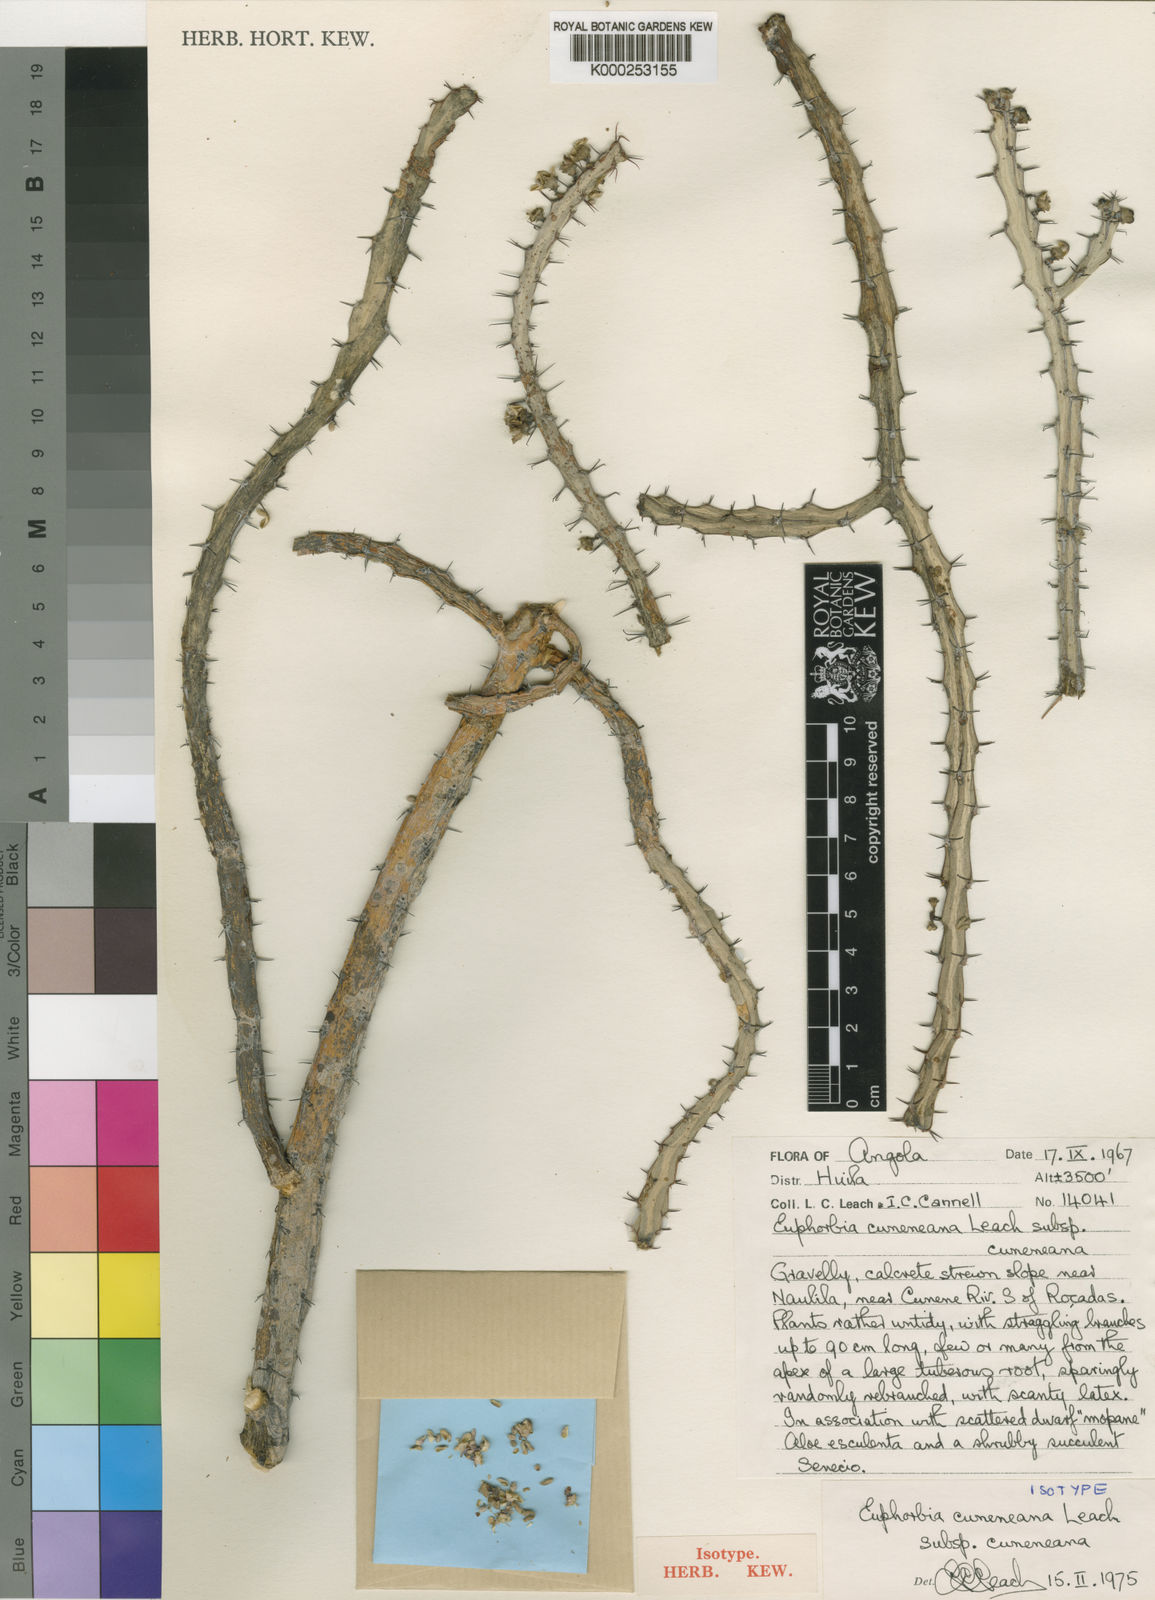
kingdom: Plantae
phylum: Tracheophyta
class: Magnoliopsida
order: Malpighiales
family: Euphorbiaceae
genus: Euphorbia
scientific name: Euphorbia cuneneana
